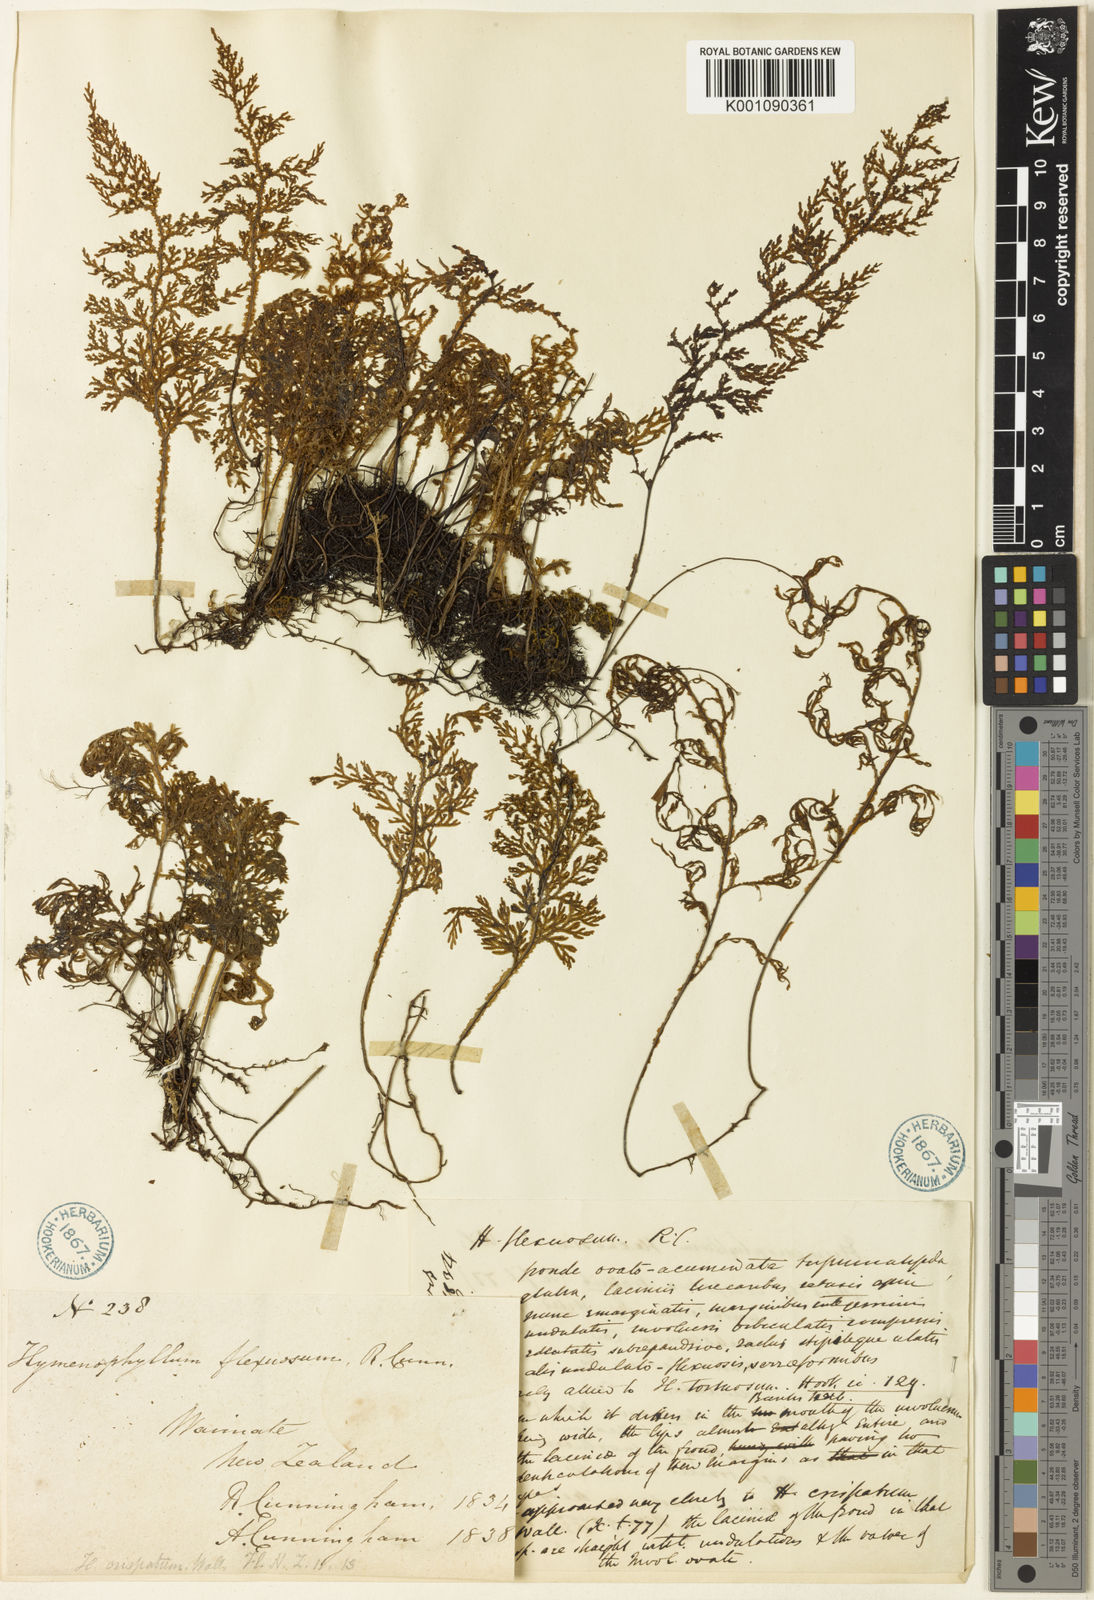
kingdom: Plantae
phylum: Tracheophyta
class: Polypodiopsida
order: Hymenophyllales
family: Hymenophyllaceae
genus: Hymenophyllum
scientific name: Hymenophyllum flexuosum
